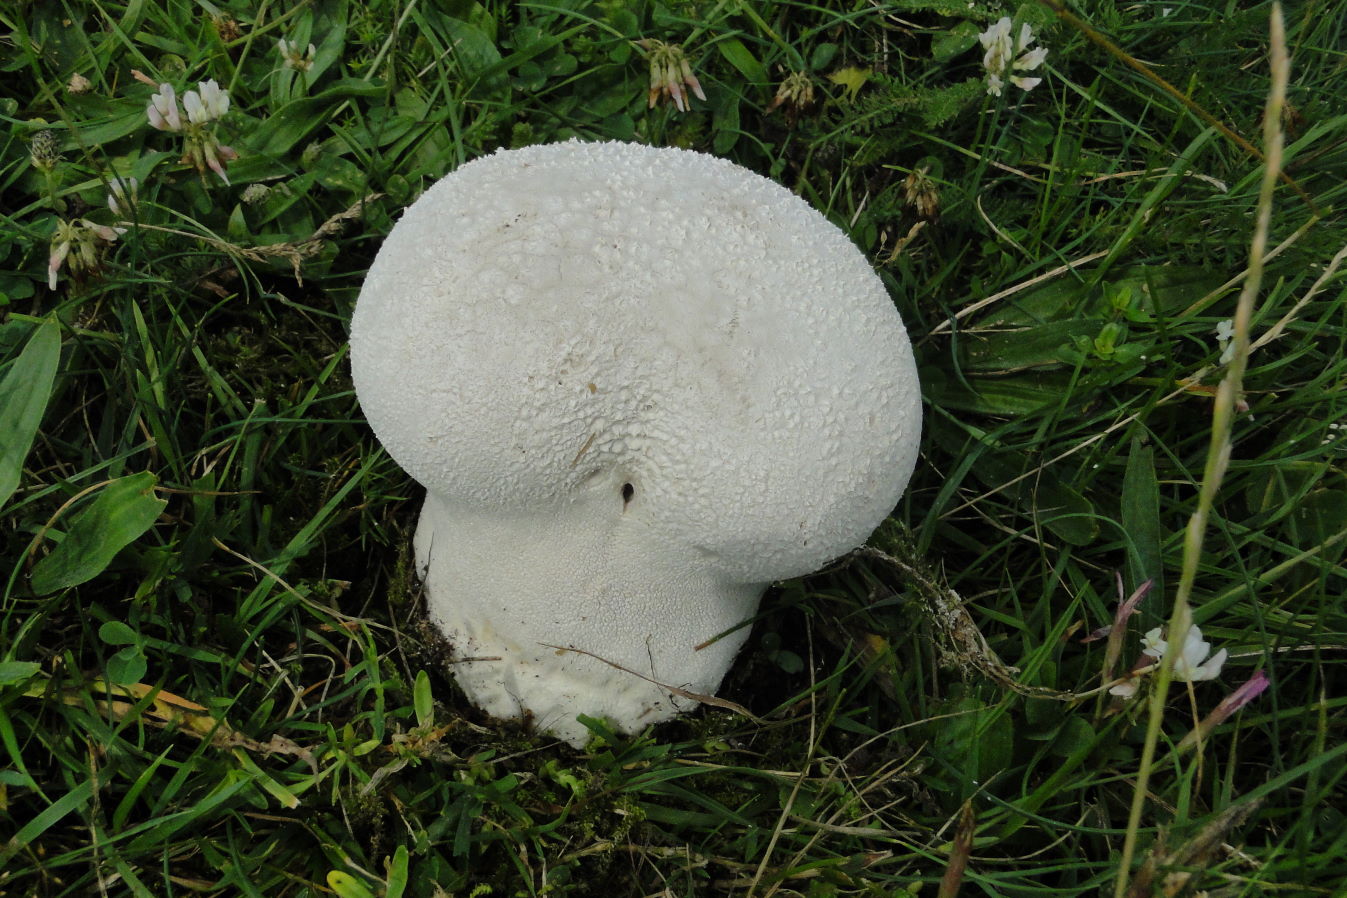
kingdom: Fungi
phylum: Basidiomycota
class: Agaricomycetes
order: Agaricales
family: Lycoperdaceae
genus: Bovistella
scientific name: Bovistella utriformis
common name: skællet støvbold
